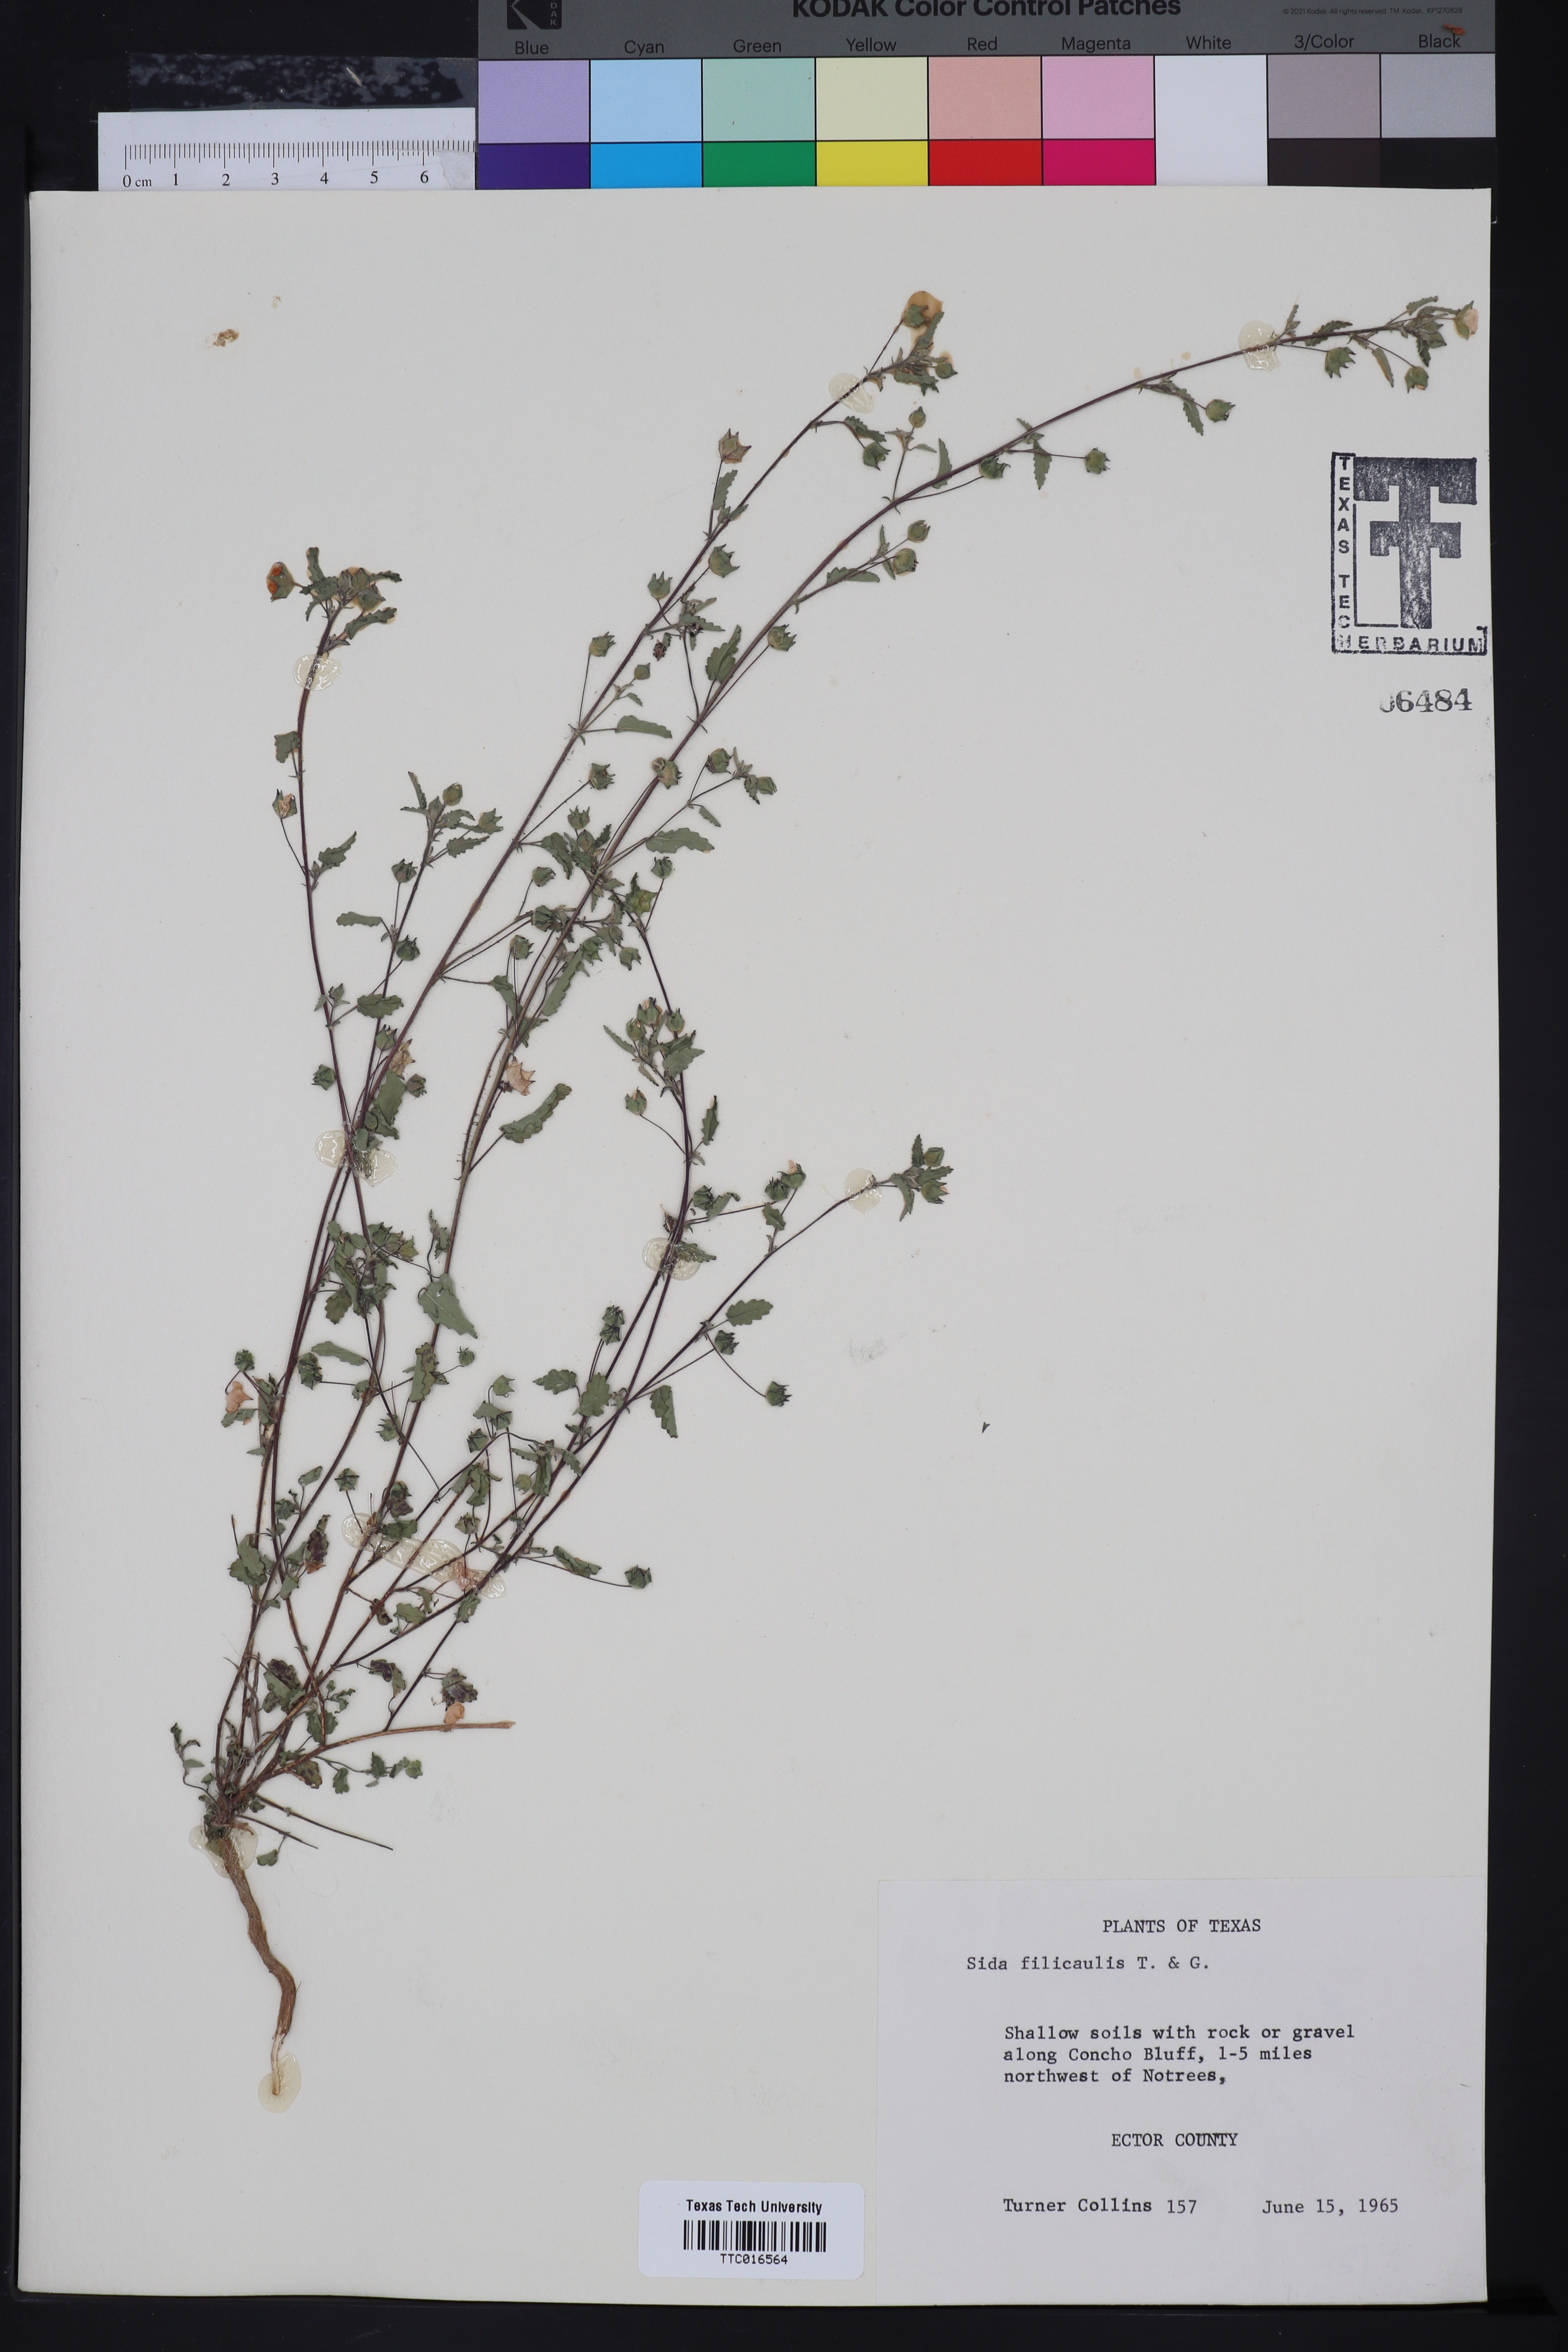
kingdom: Plantae
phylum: Tracheophyta
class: Magnoliopsida
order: Malvales
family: Malvaceae
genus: Sida
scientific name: Sida abutilifolia
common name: Spreading fanpetals
